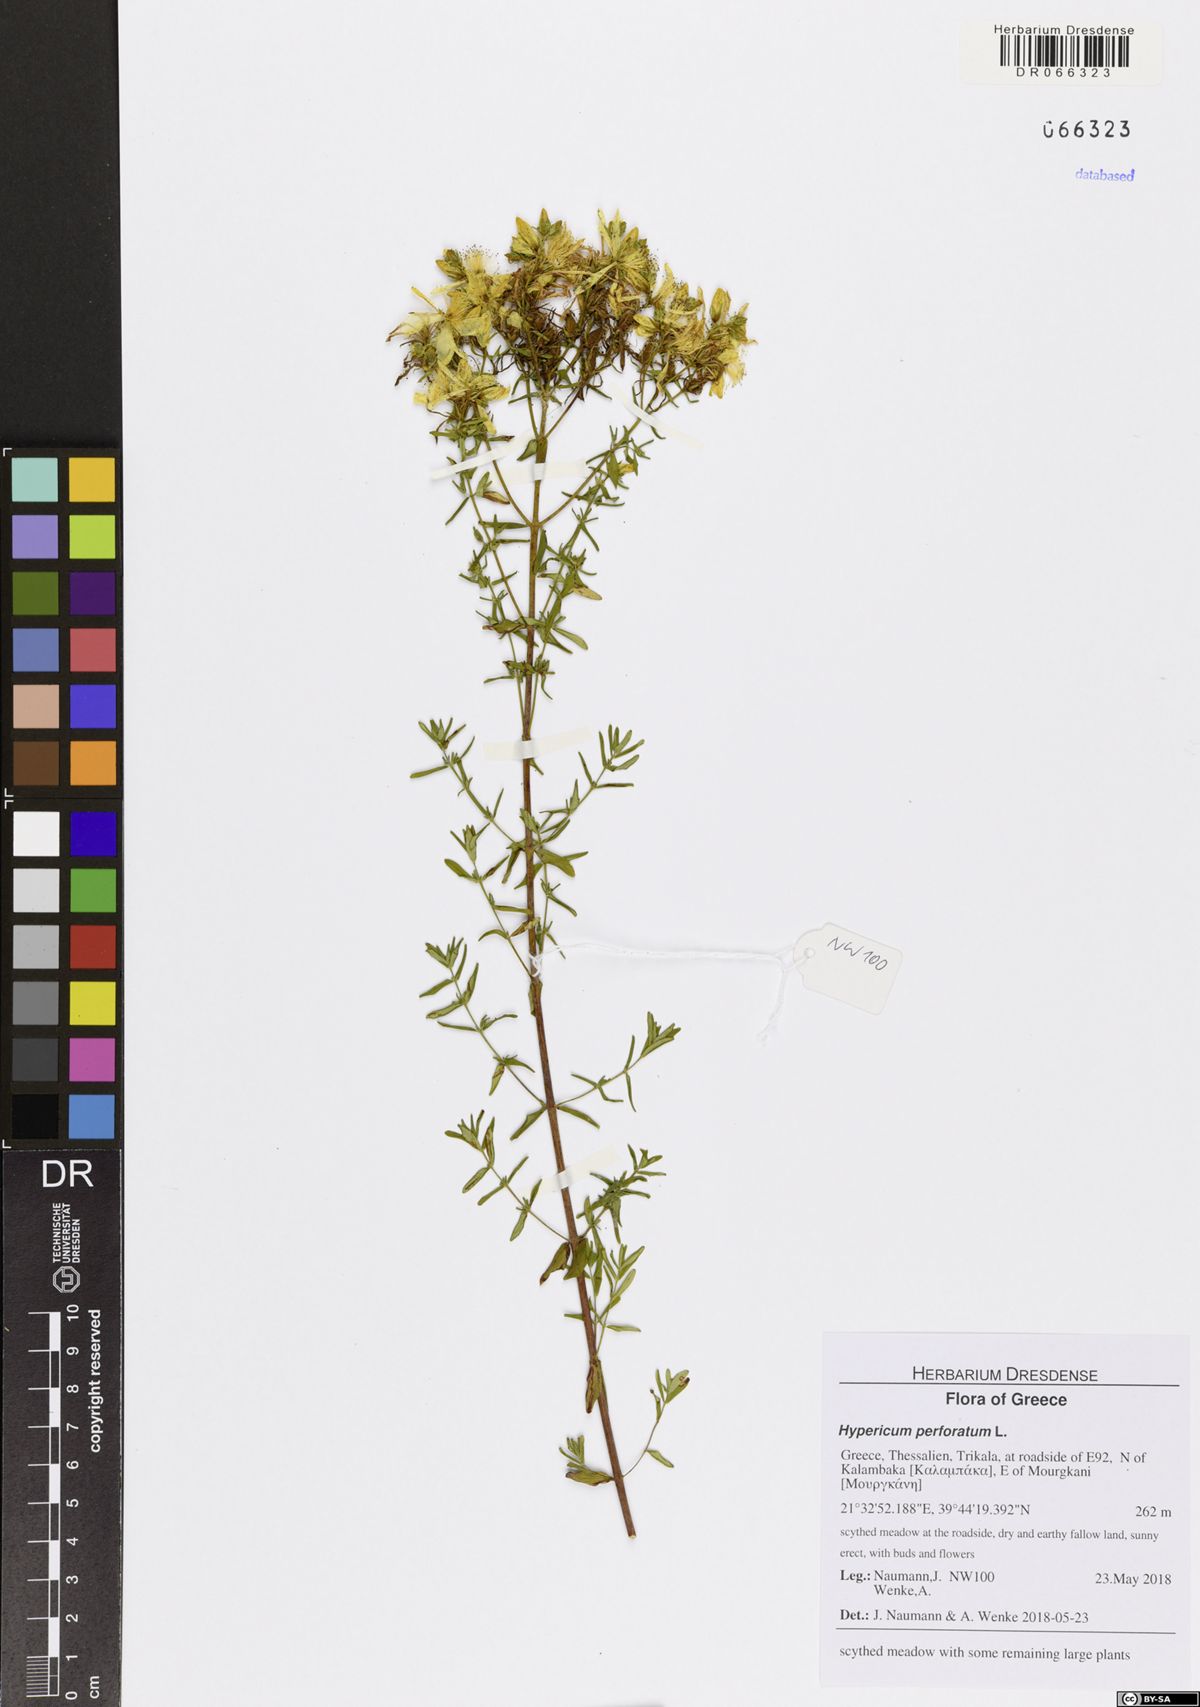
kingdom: Plantae
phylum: Tracheophyta
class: Magnoliopsida
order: Malpighiales
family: Hypericaceae
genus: Hypericum
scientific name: Hypericum perforatum
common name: Common st. johnswort
